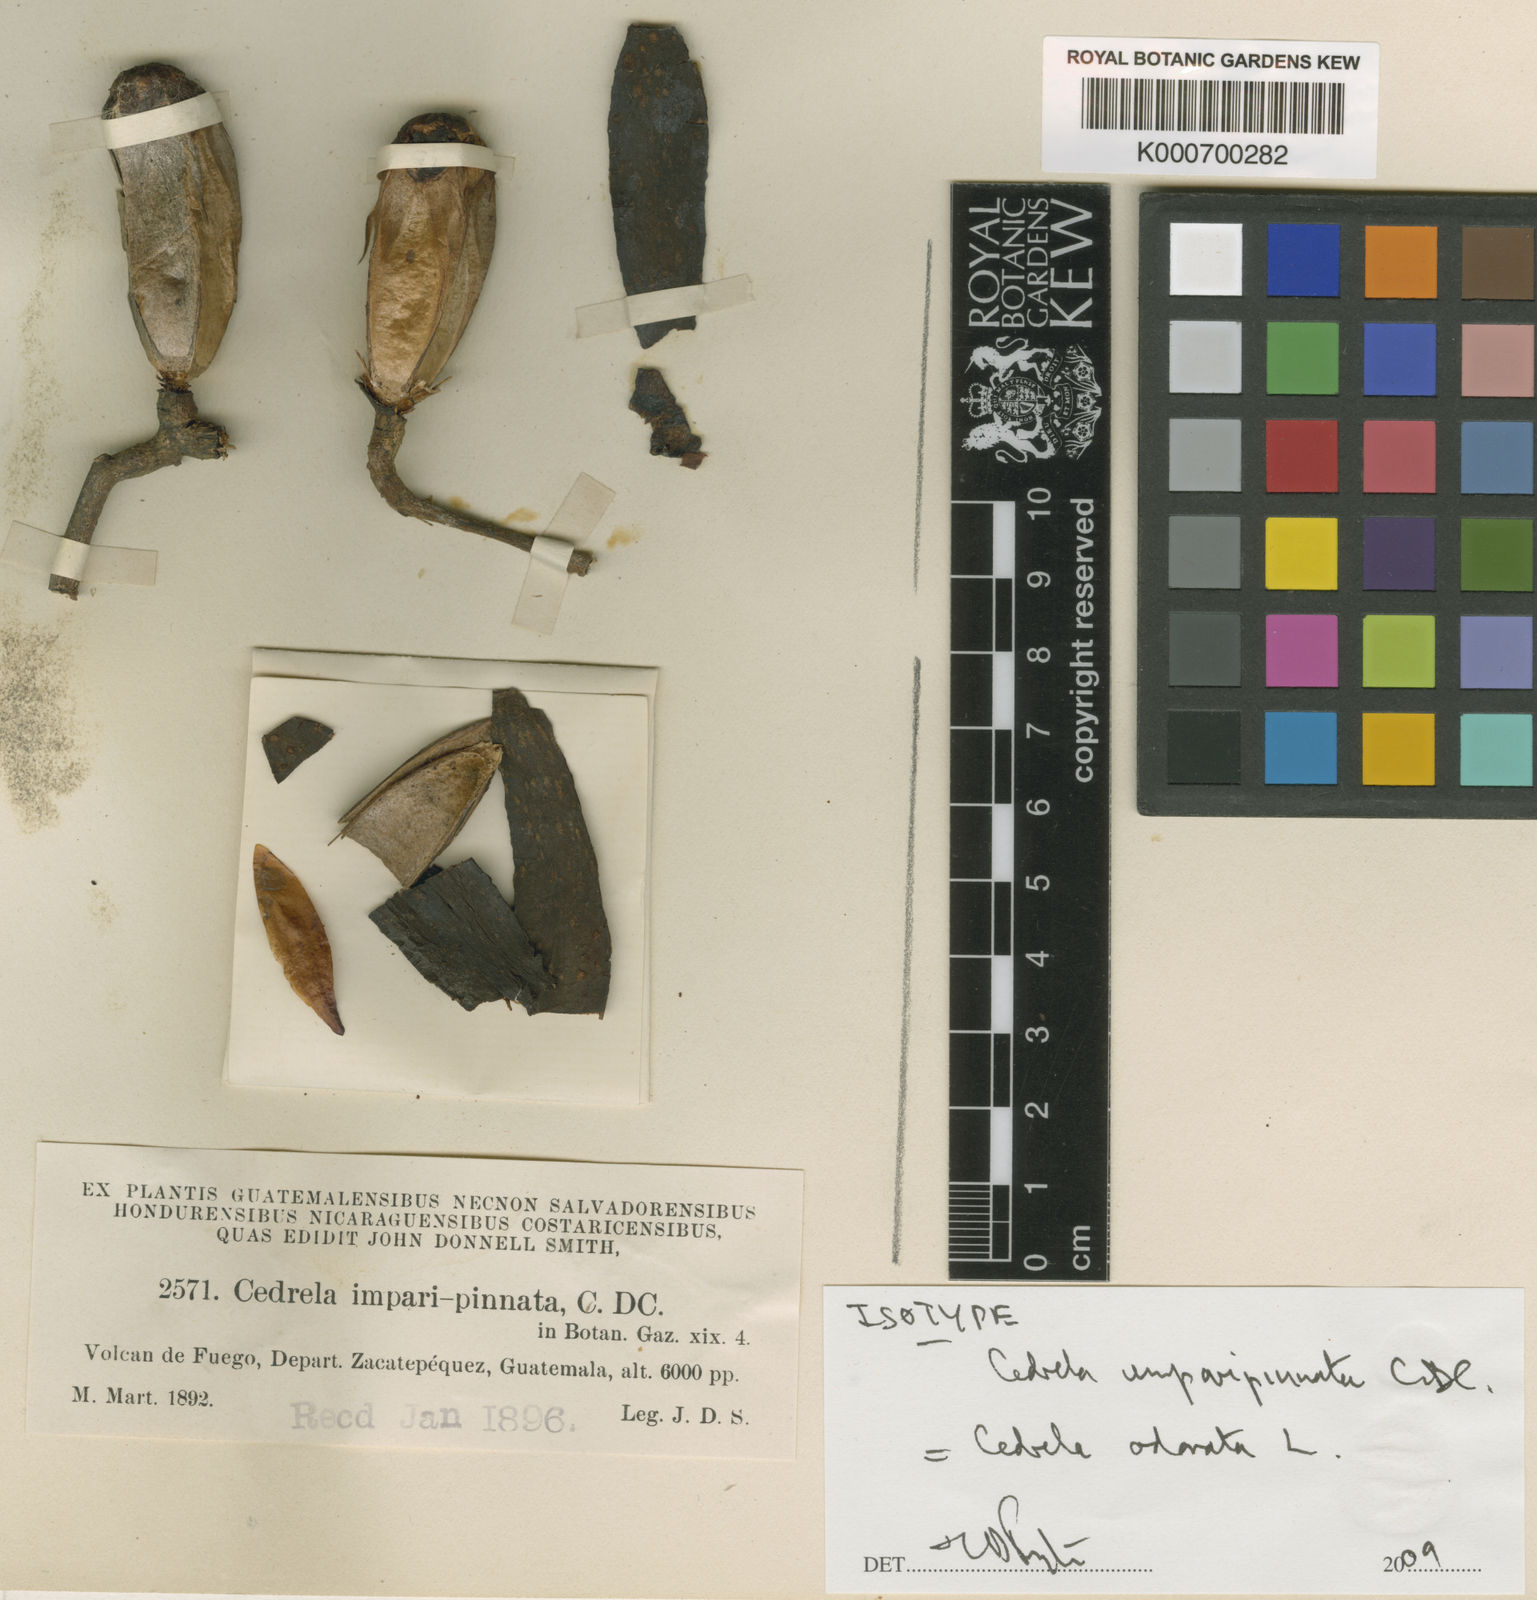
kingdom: Plantae
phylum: Tracheophyta
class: Magnoliopsida
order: Sapindales
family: Meliaceae
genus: Cedrela
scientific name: Cedrela odorata
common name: Red cedar
